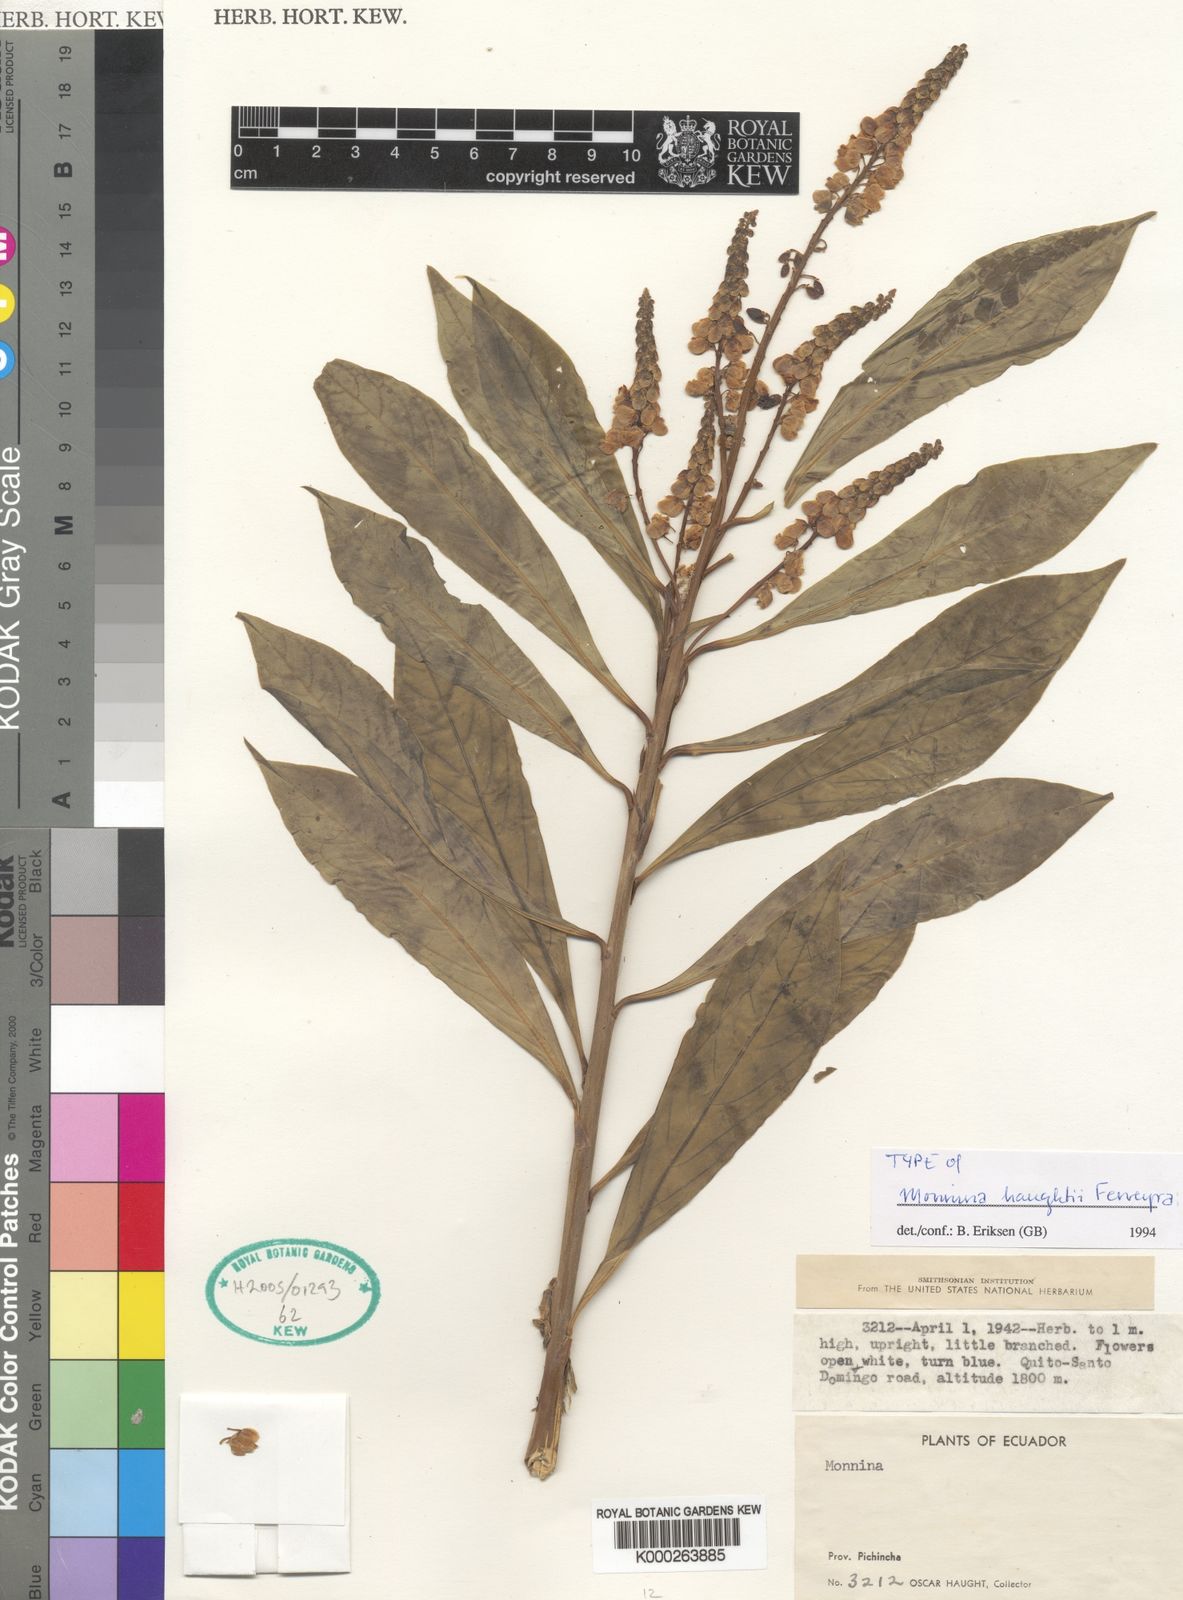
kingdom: Plantae
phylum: Tracheophyta
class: Magnoliopsida
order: Fabales
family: Polygalaceae
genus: Monnina
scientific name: Monnina haughtii
